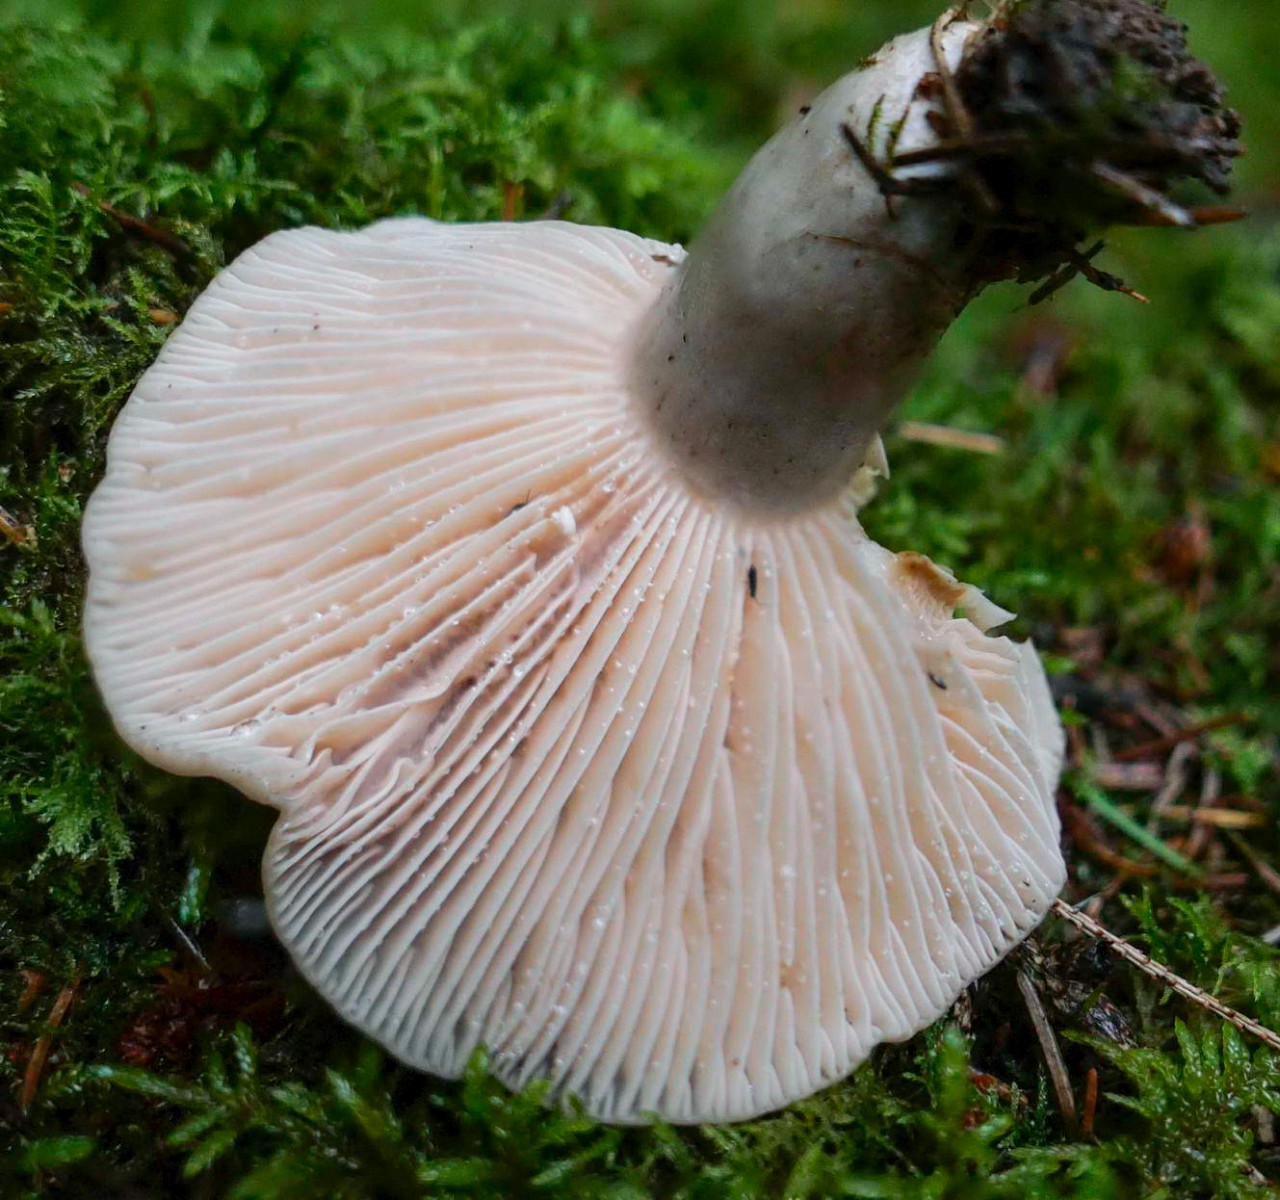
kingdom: Fungi
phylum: Basidiomycota
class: Agaricomycetes
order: Russulales
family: Russulaceae
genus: Lactarius
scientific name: Lactarius flexuosus
